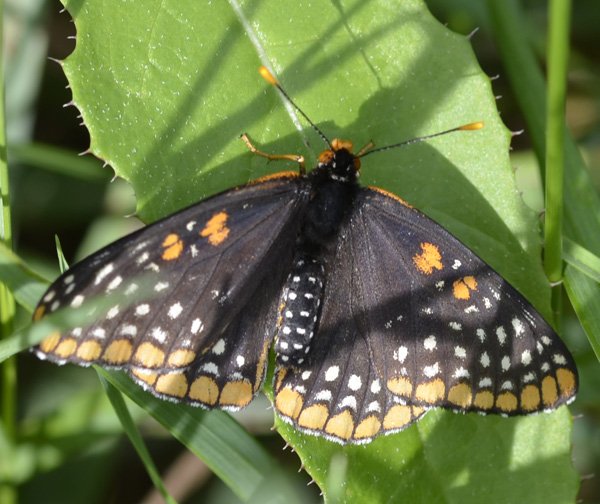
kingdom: Animalia
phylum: Arthropoda
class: Insecta
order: Lepidoptera
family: Nymphalidae
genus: Euphydryas
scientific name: Euphydryas phaeton
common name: Baltimore Checkerspot
